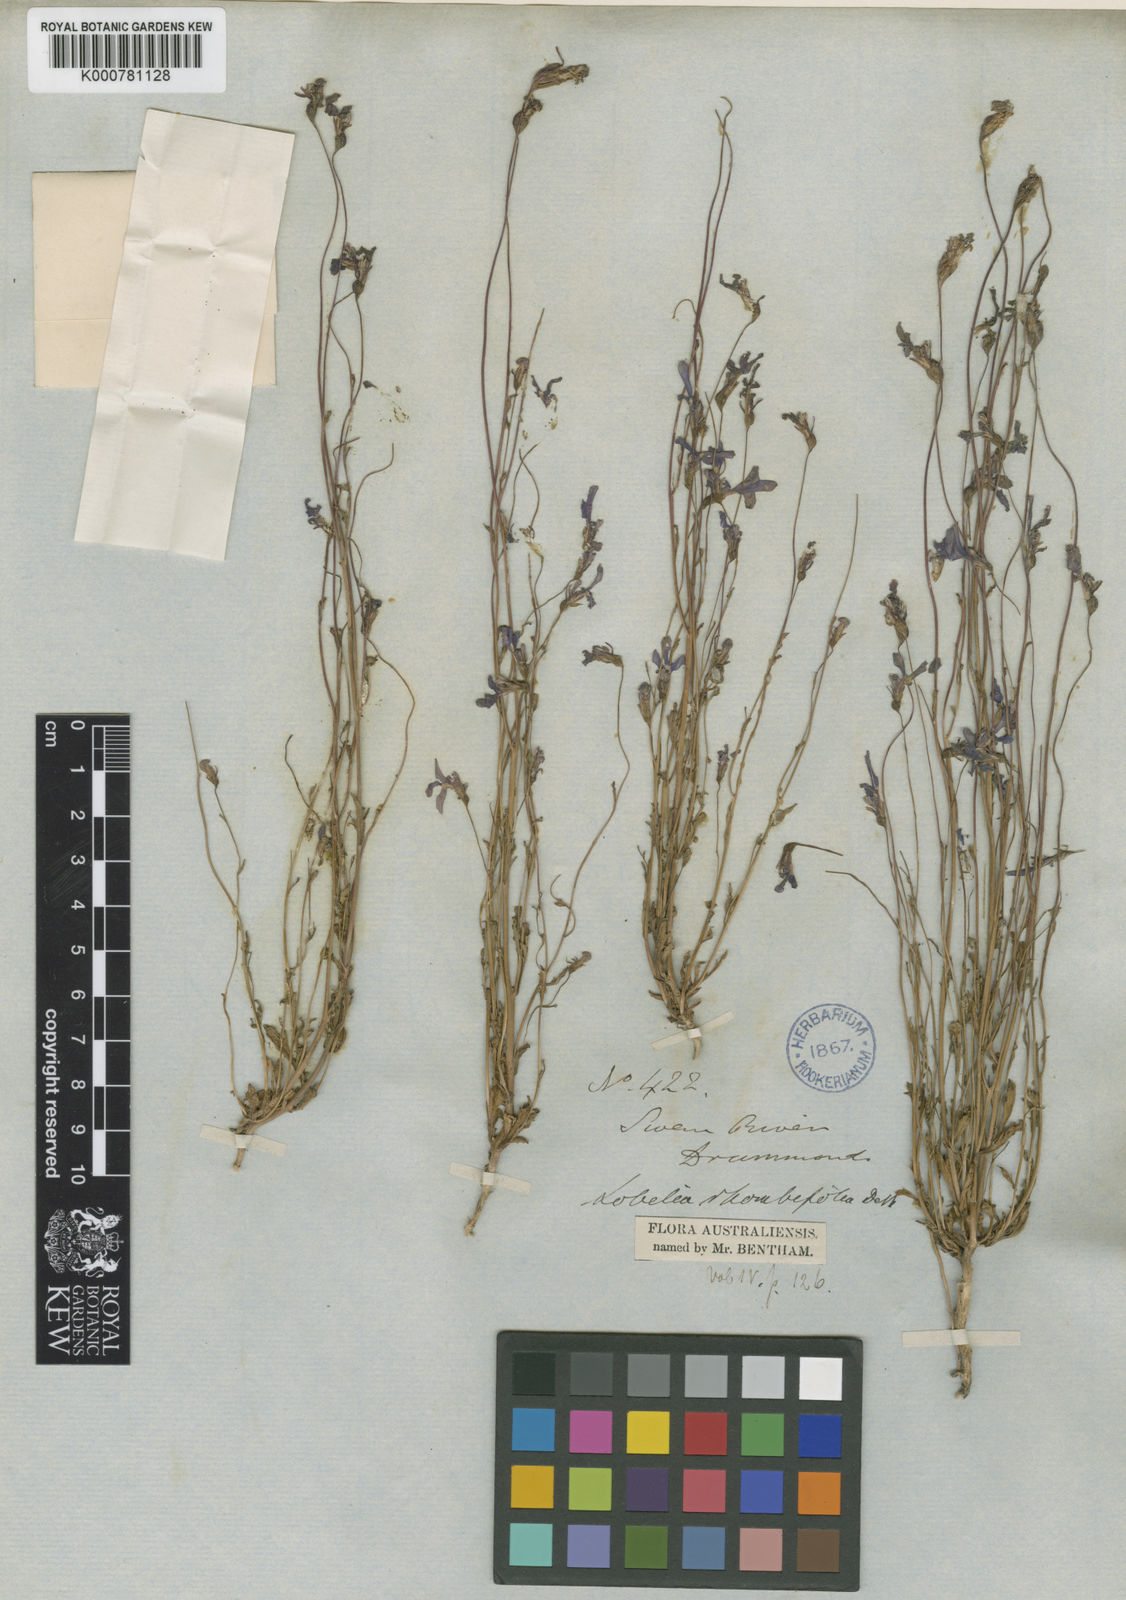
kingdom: Plantae
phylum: Tracheophyta
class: Magnoliopsida
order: Asterales
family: Campanulaceae
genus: Lobelia
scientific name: Lobelia rhombifolia
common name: Tufted lobelia
